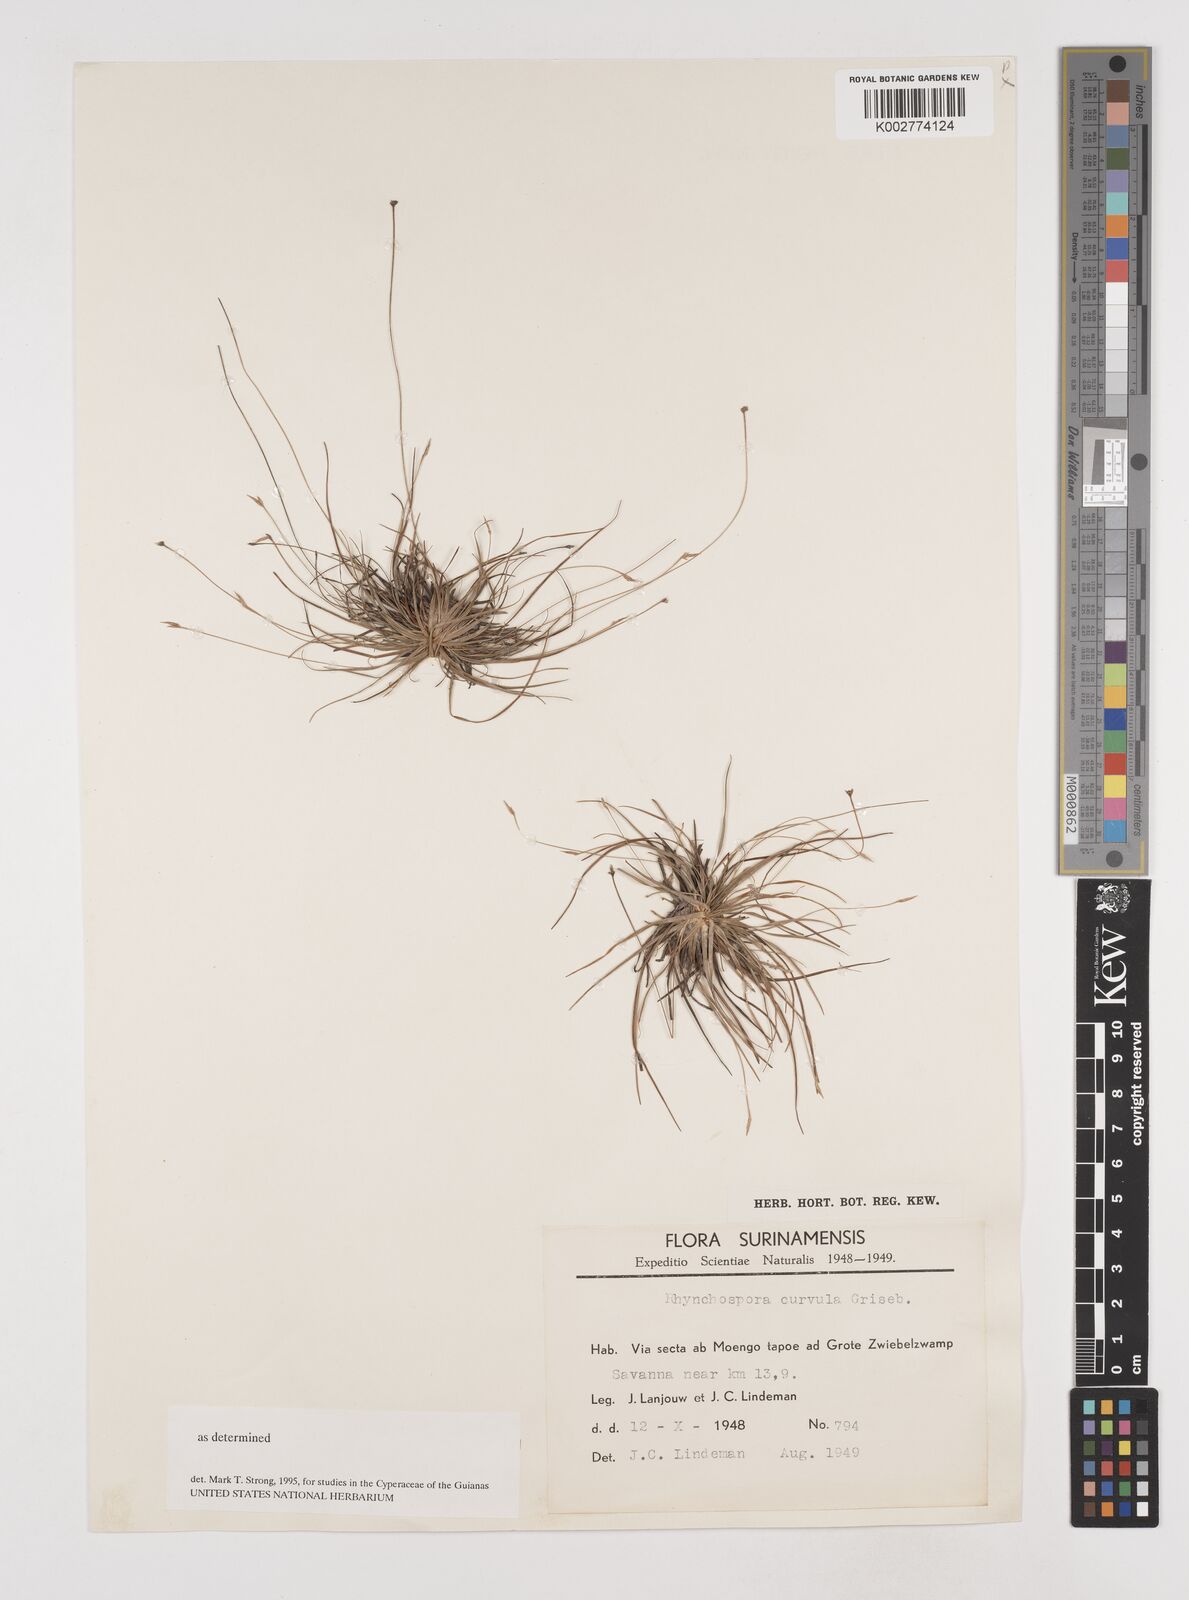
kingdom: Plantae
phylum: Tracheophyta
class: Liliopsida
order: Poales
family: Cyperaceae
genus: Rhynchospora
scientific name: Rhynchospora curvula
